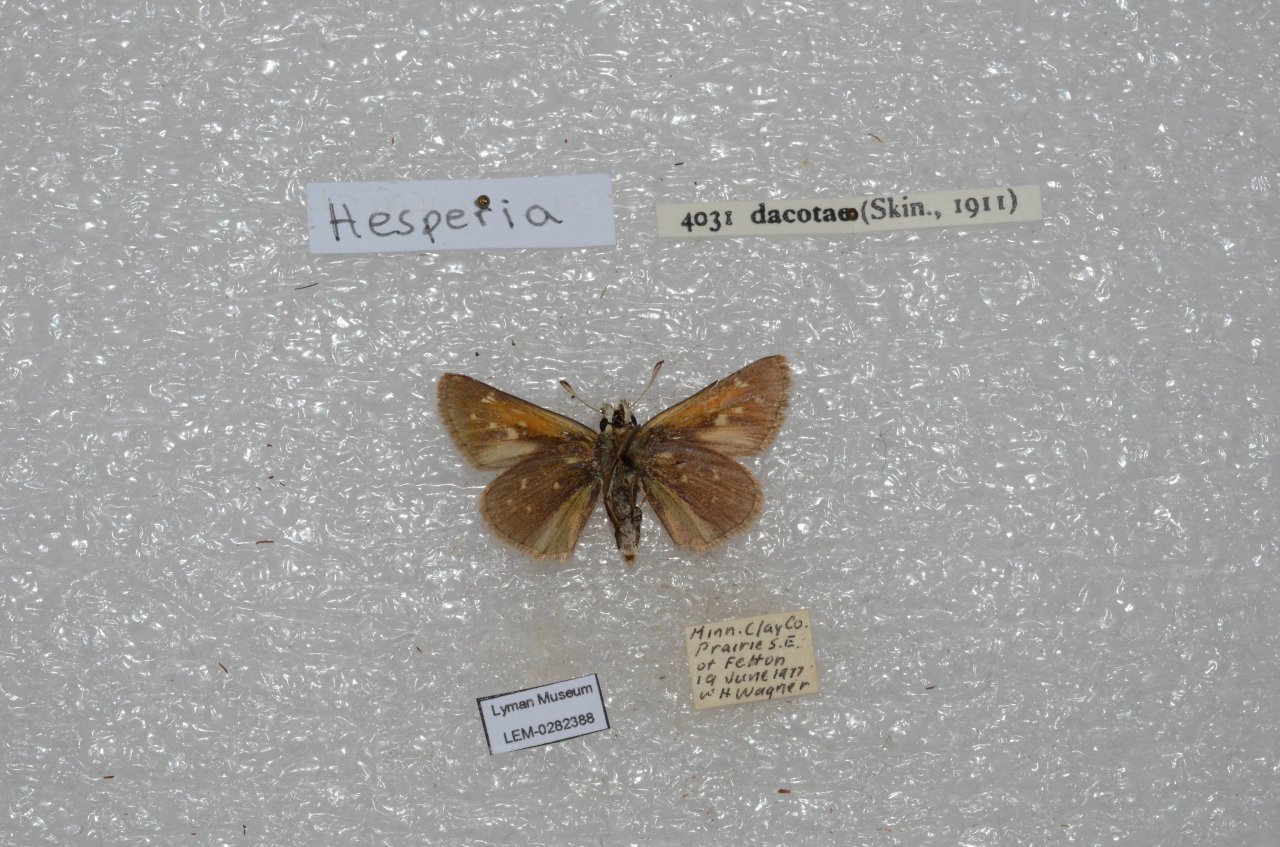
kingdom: Animalia
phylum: Arthropoda
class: Insecta
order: Lepidoptera
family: Hesperiidae
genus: Hesperia
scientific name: Hesperia dacotae
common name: Dakota Skipper
